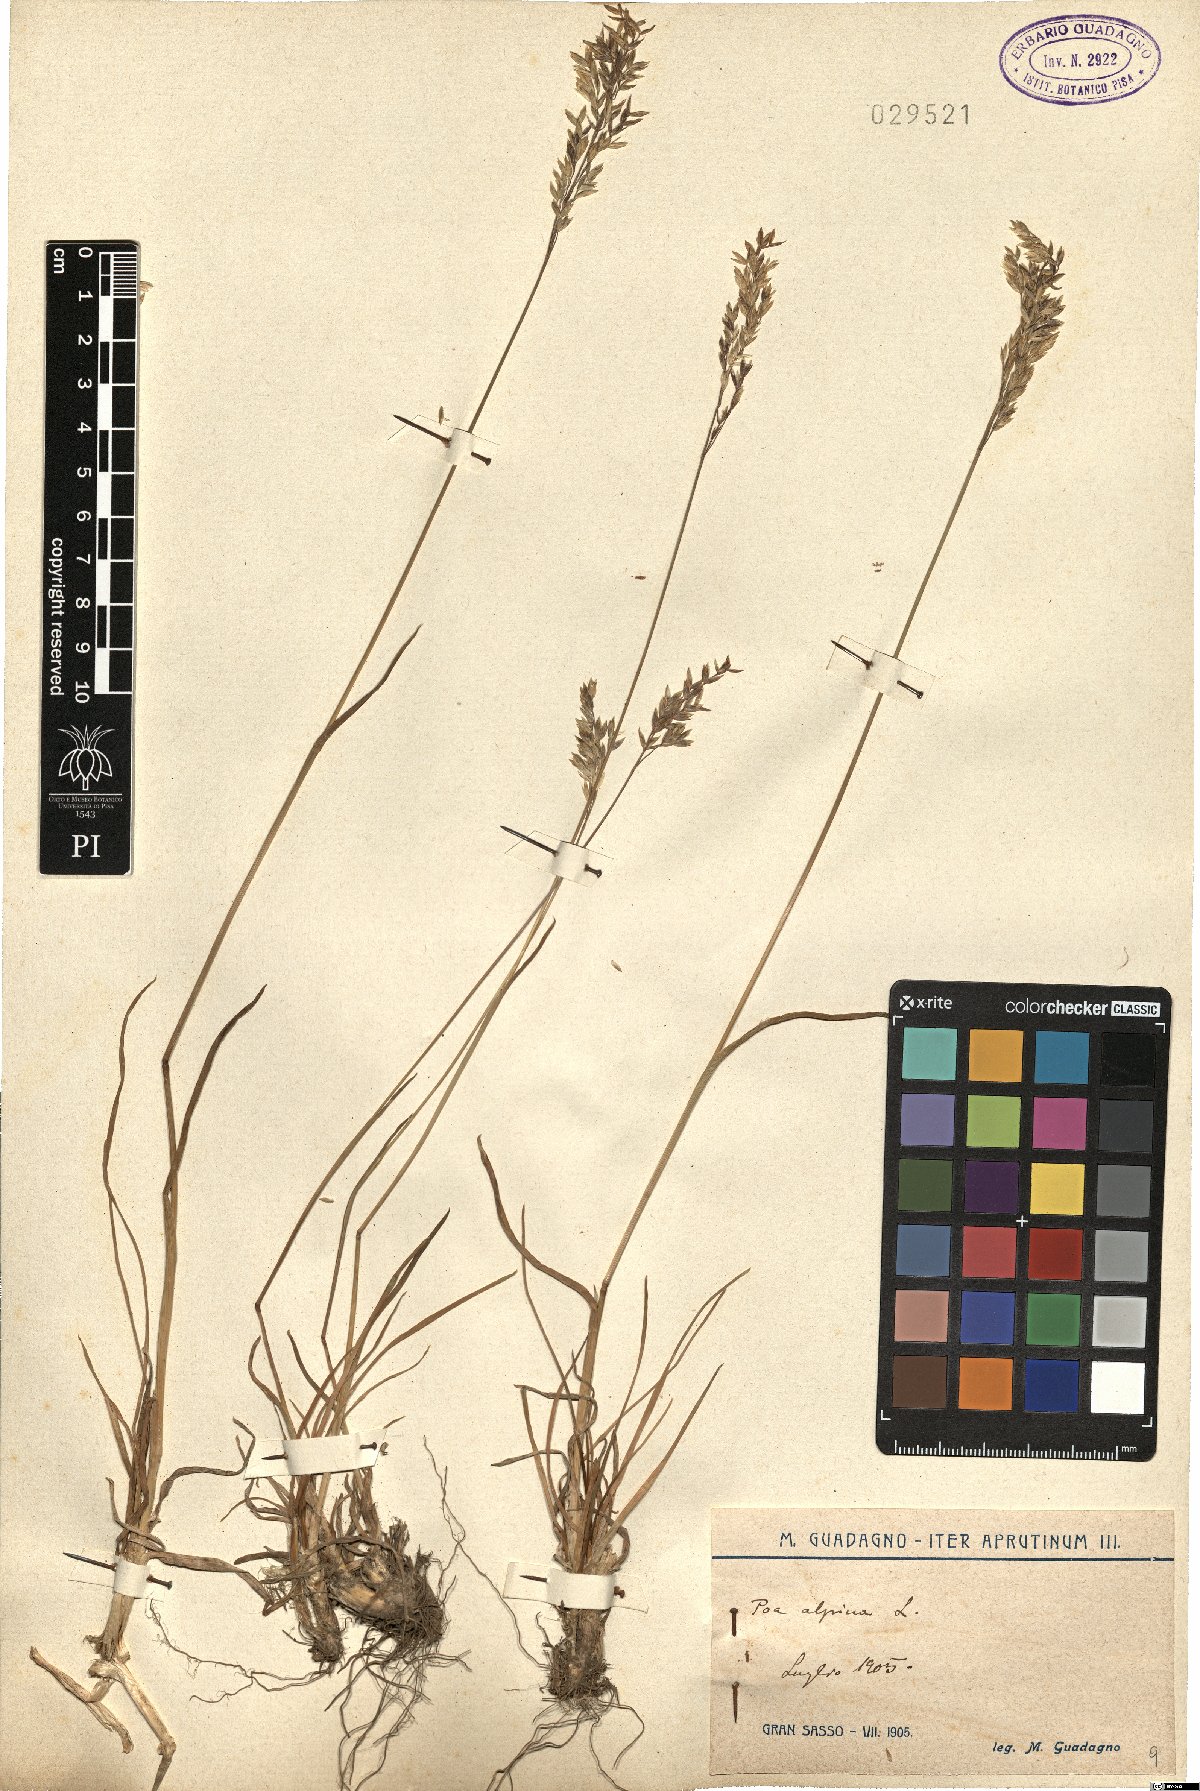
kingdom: Plantae
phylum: Tracheophyta
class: Liliopsida
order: Poales
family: Poaceae
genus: Poa
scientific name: Poa alpina
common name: Alpine bluegrass
